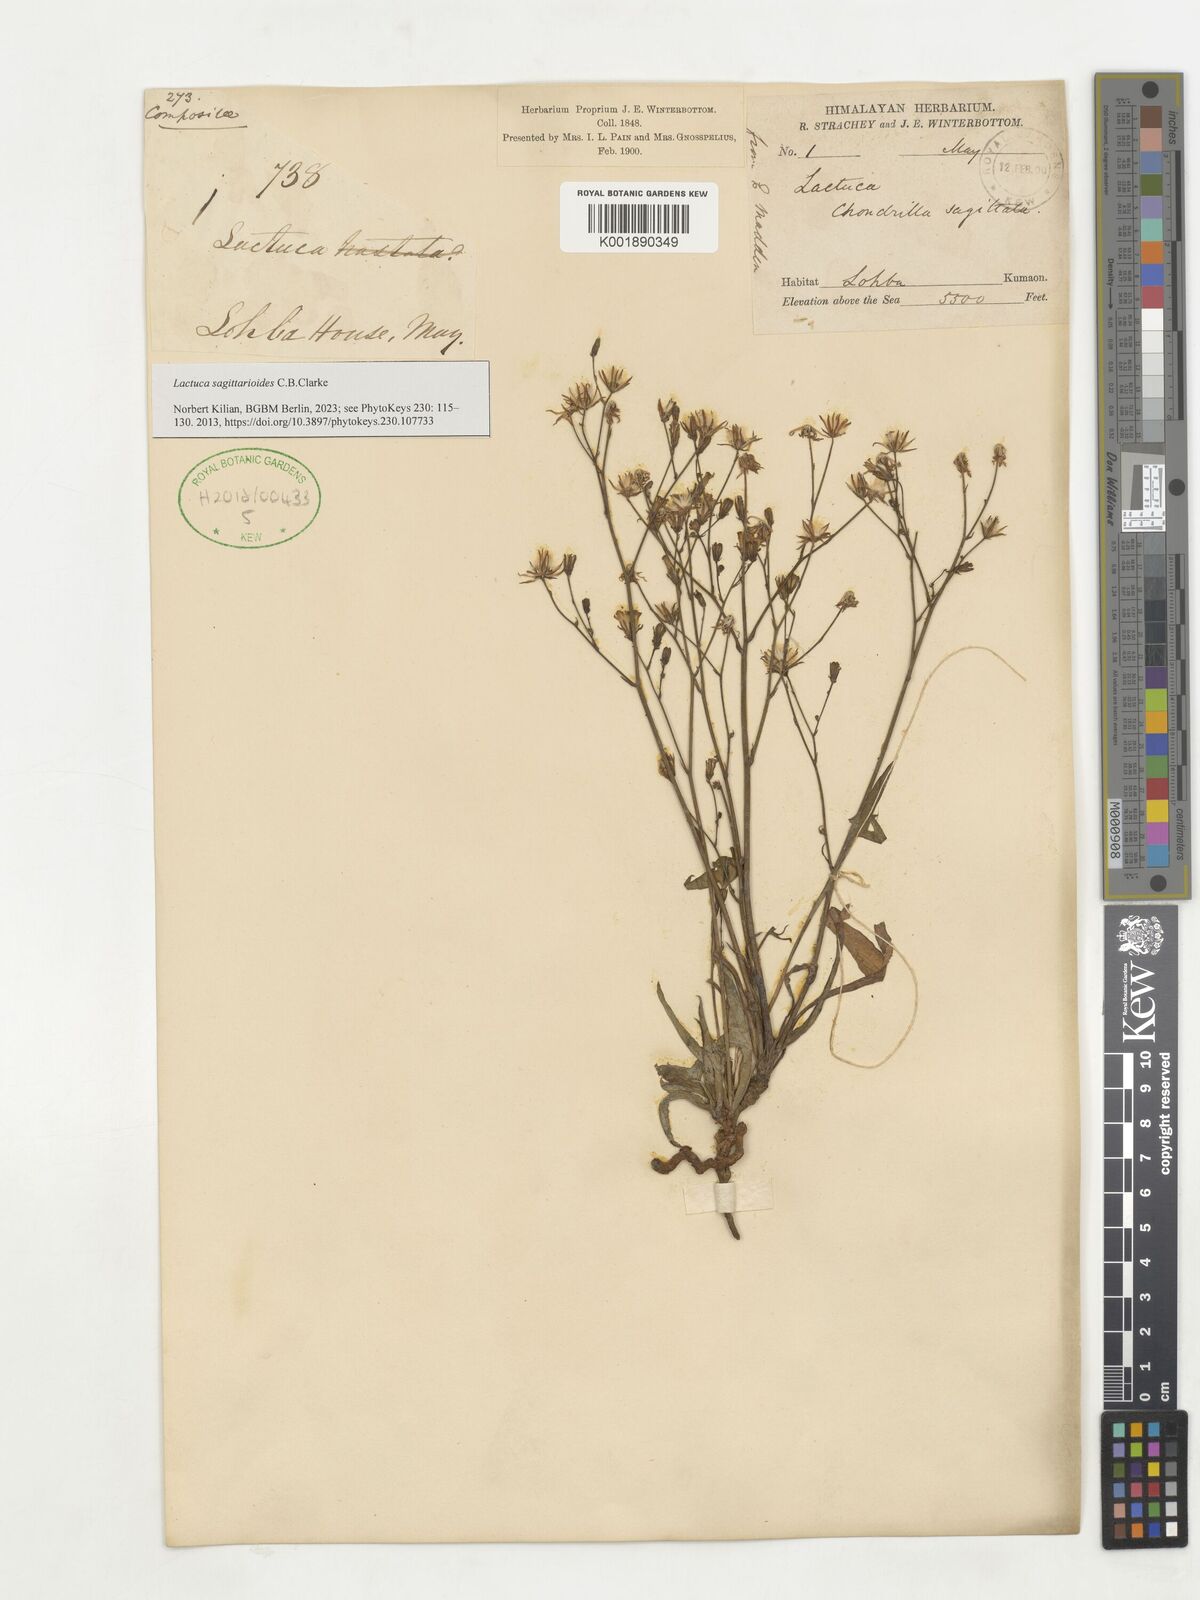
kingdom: Plantae
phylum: Tracheophyta
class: Magnoliopsida
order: Asterales
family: Asteraceae
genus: Ixeridium
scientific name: Ixeridium sagittarioides
